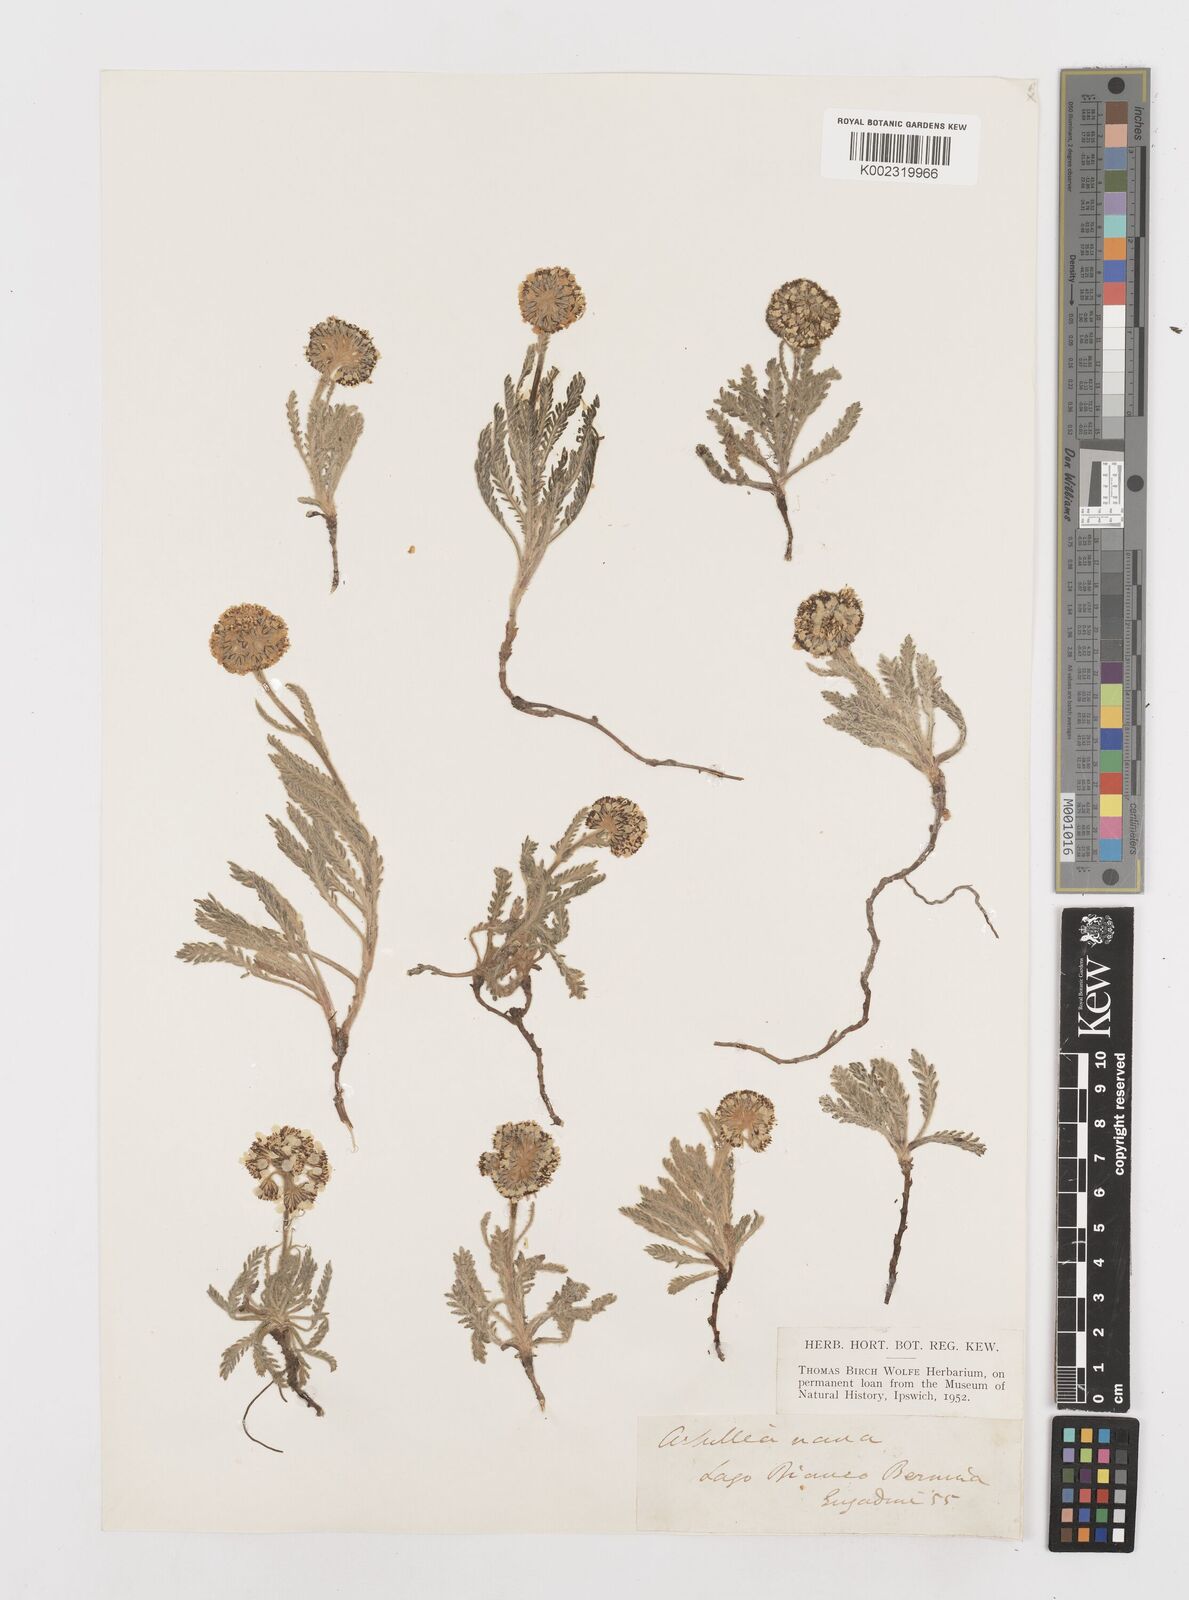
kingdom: Plantae
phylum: Tracheophyta
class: Magnoliopsida
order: Asterales
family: Asteraceae
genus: Achillea
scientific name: Achillea erba-rotta
